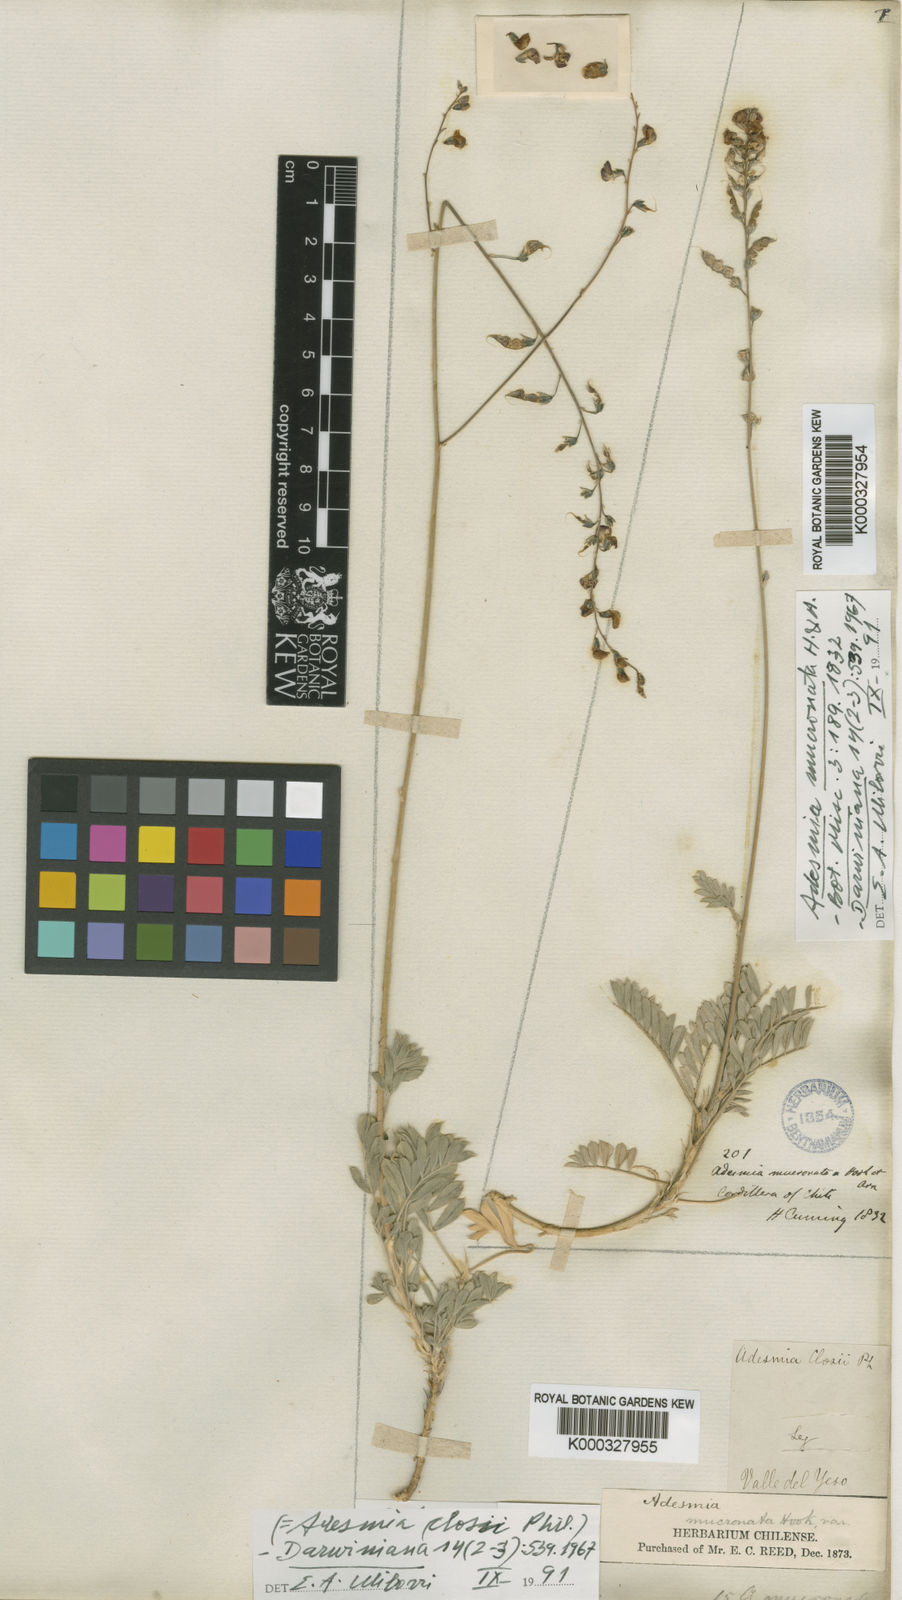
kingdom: Plantae
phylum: Tracheophyta
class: Magnoliopsida
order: Fabales
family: Fabaceae
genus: Adesmia
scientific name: Adesmia mucronata
